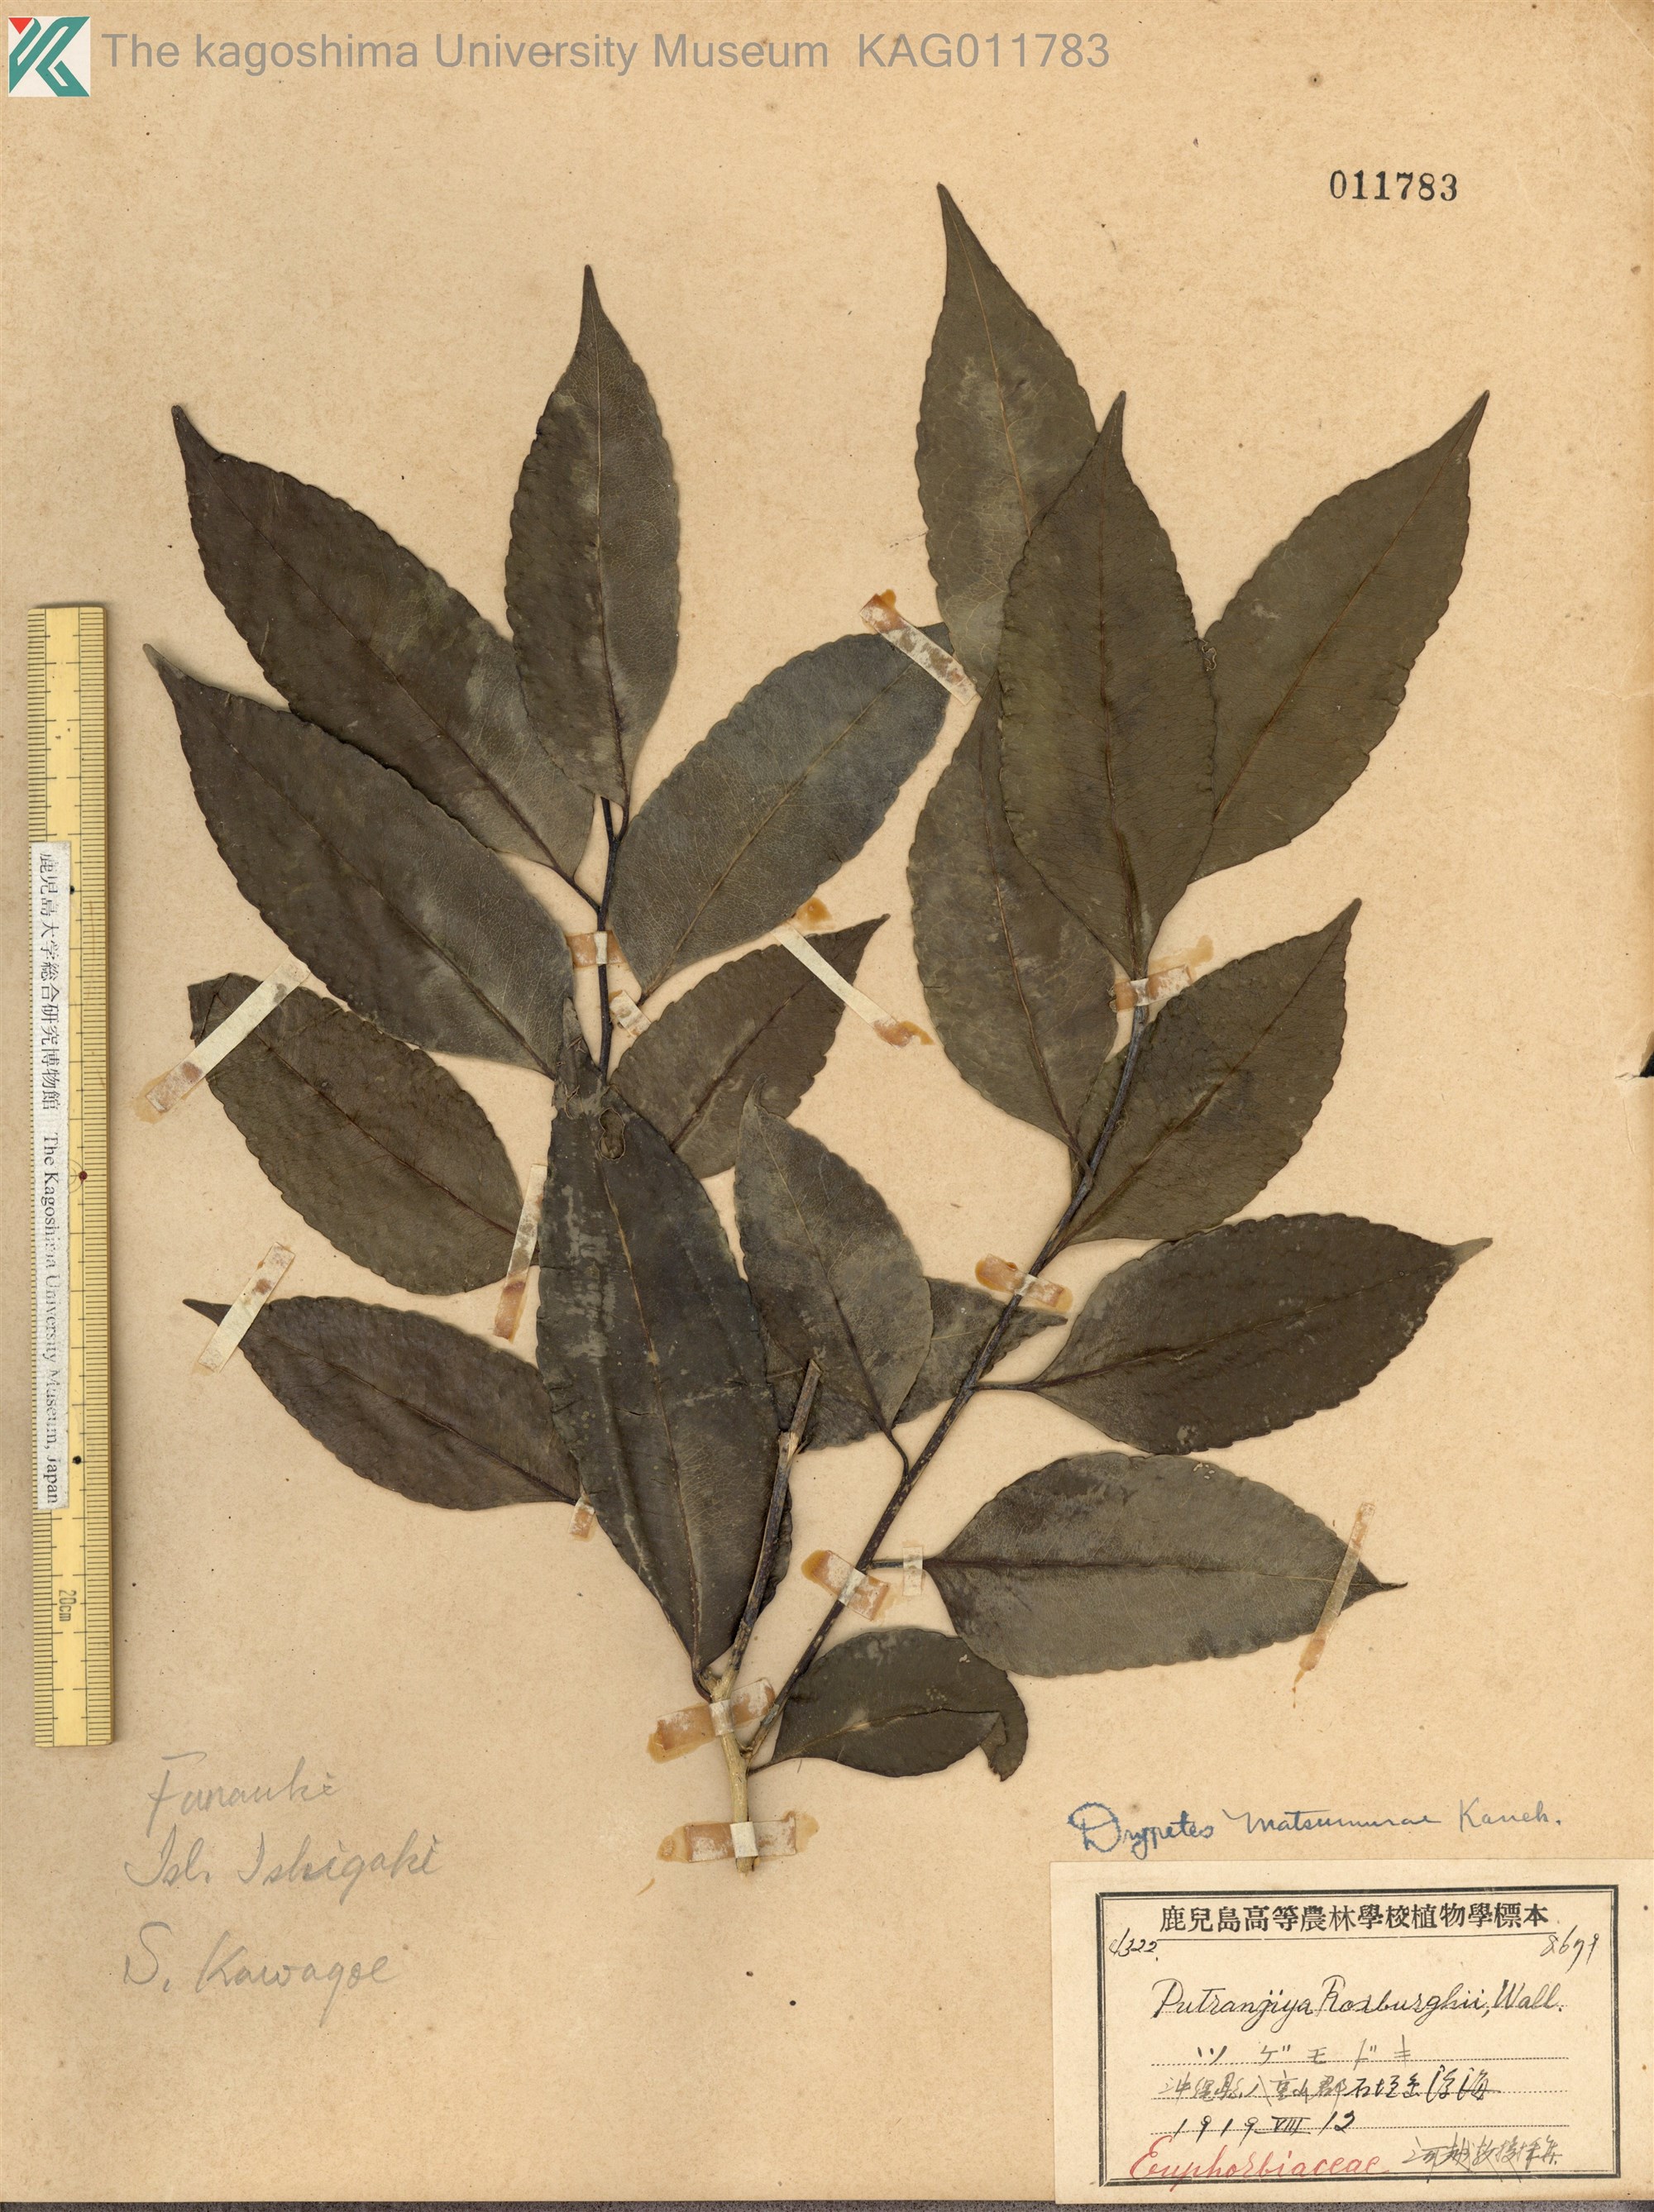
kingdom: Plantae
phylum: Tracheophyta
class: Magnoliopsida
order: Malpighiales
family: Putranjivaceae
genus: Putranjiva
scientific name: Putranjiva matsumurae
